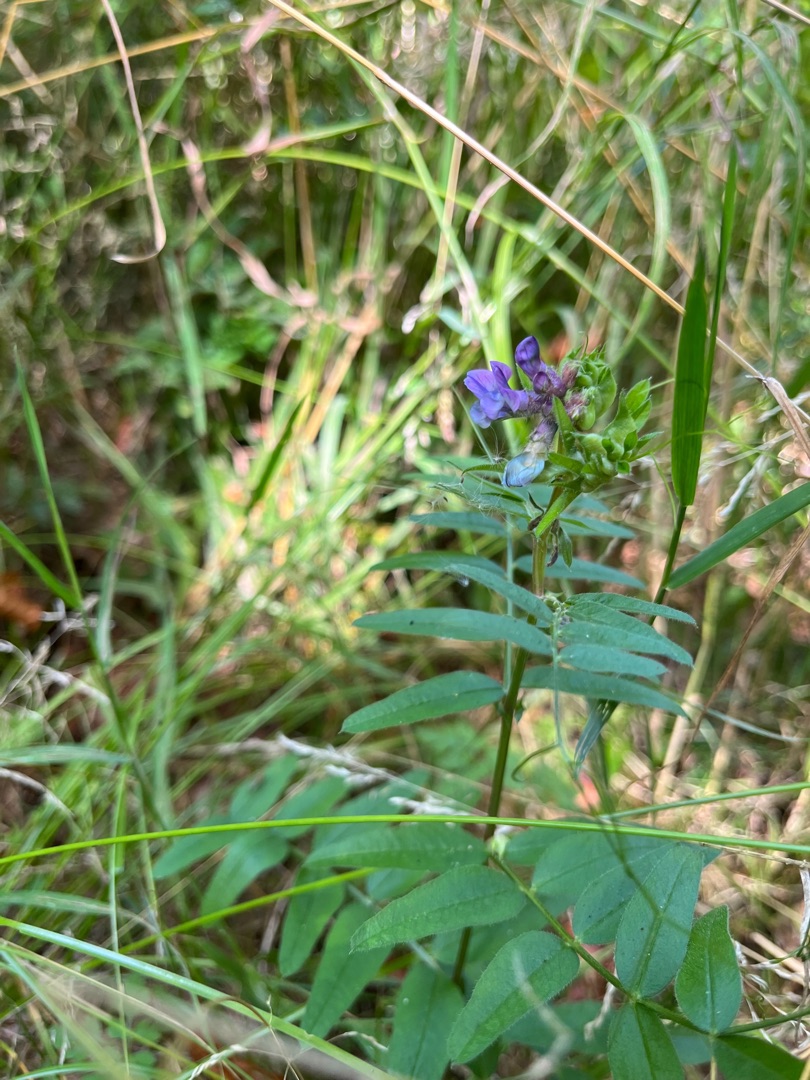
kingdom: Plantae
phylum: Tracheophyta
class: Magnoliopsida
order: Fabales
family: Fabaceae
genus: Vicia
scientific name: Vicia sepium
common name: Gærde-vikke
